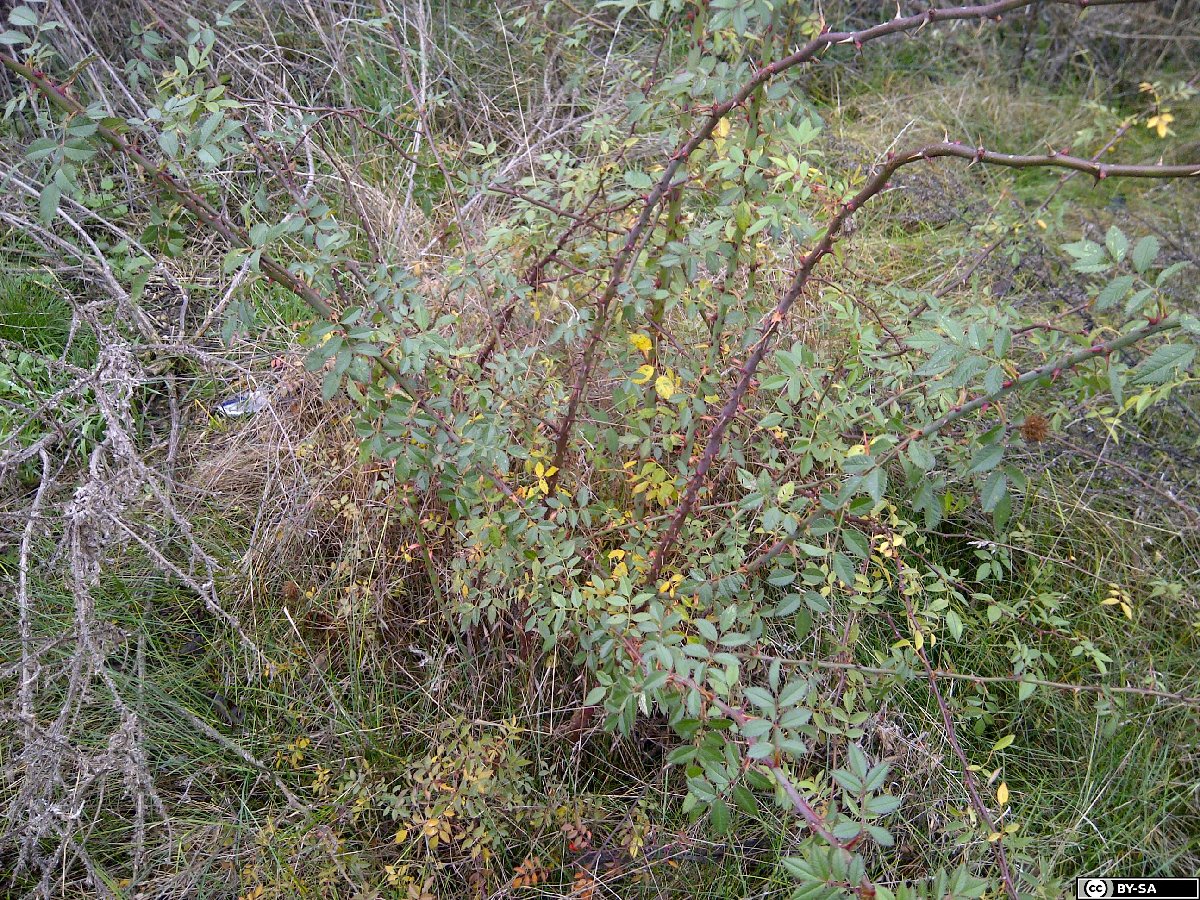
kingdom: Plantae
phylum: Tracheophyta
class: Magnoliopsida
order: Rosales
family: Rosaceae
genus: Rosa
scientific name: Rosa agrestis
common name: Fieldbriar
